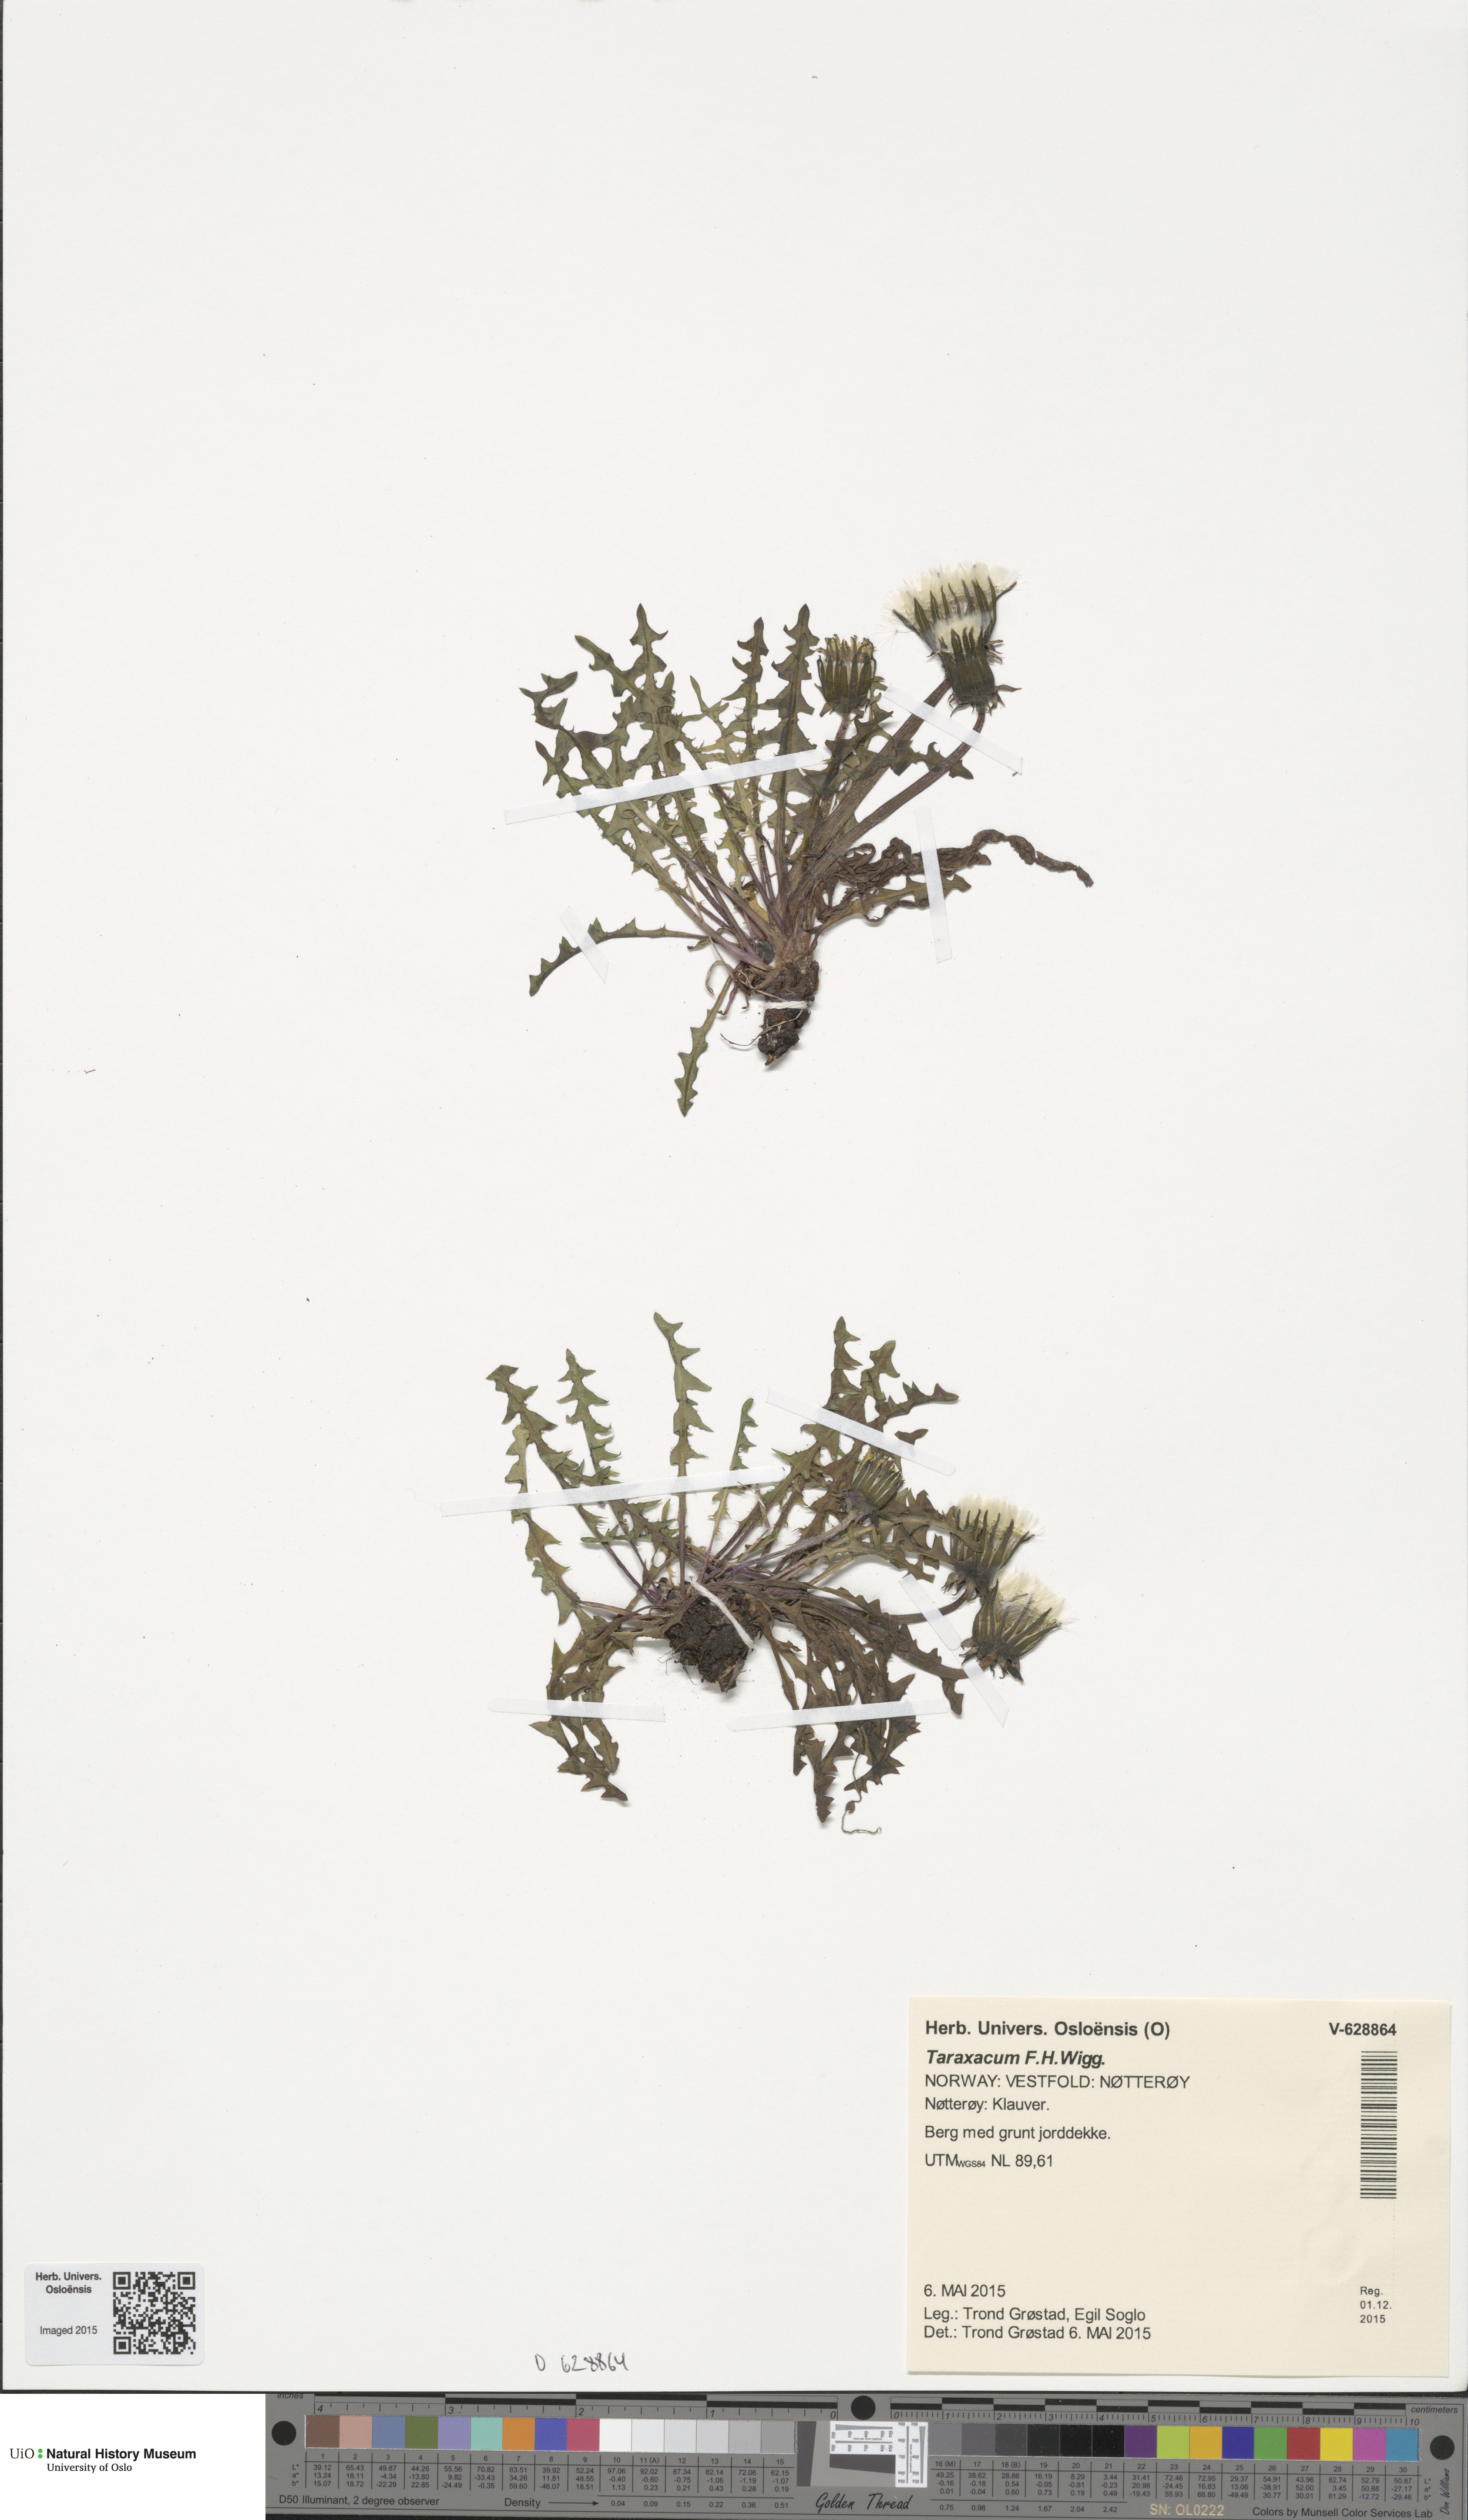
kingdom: Plantae
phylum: Tracheophyta
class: Magnoliopsida
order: Asterales
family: Asteraceae
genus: Taraxacum
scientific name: Taraxacum
